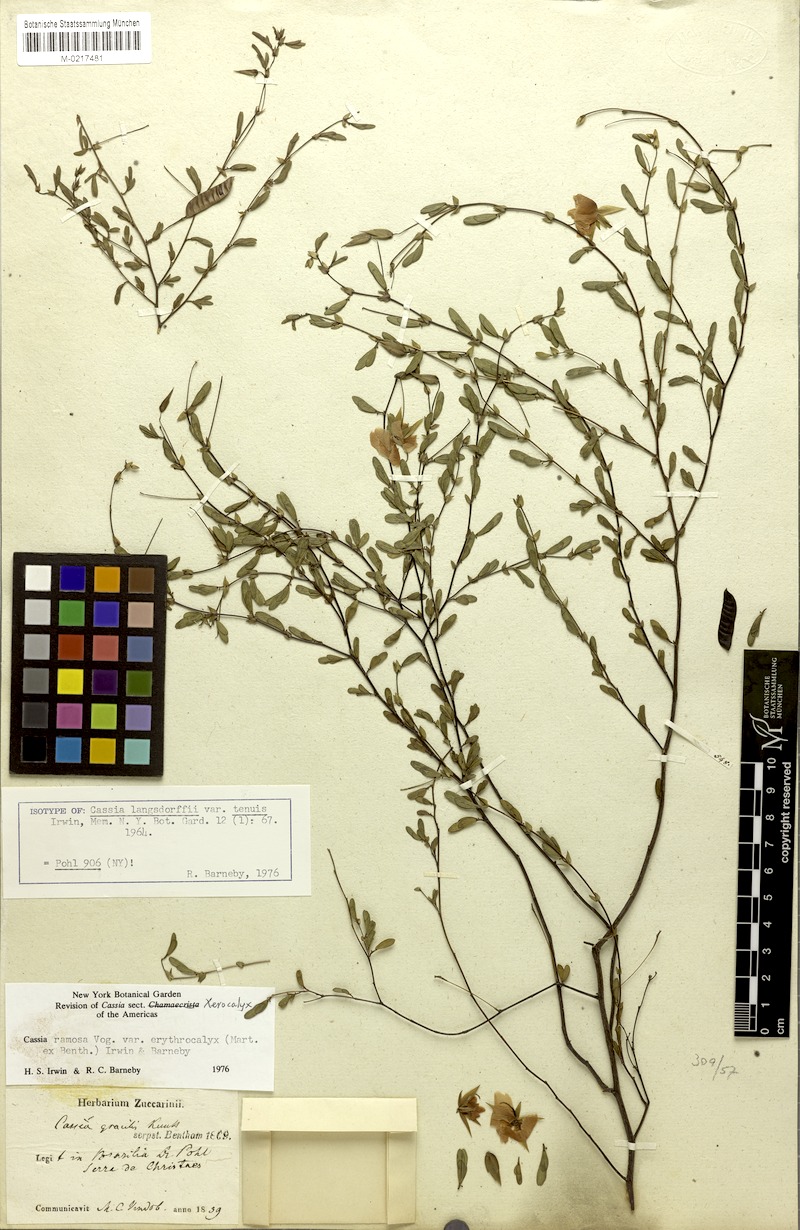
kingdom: Plantae
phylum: Tracheophyta
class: Magnoliopsida
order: Fabales
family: Fabaceae
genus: Chamaecrista
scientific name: Chamaecrista ramosa
